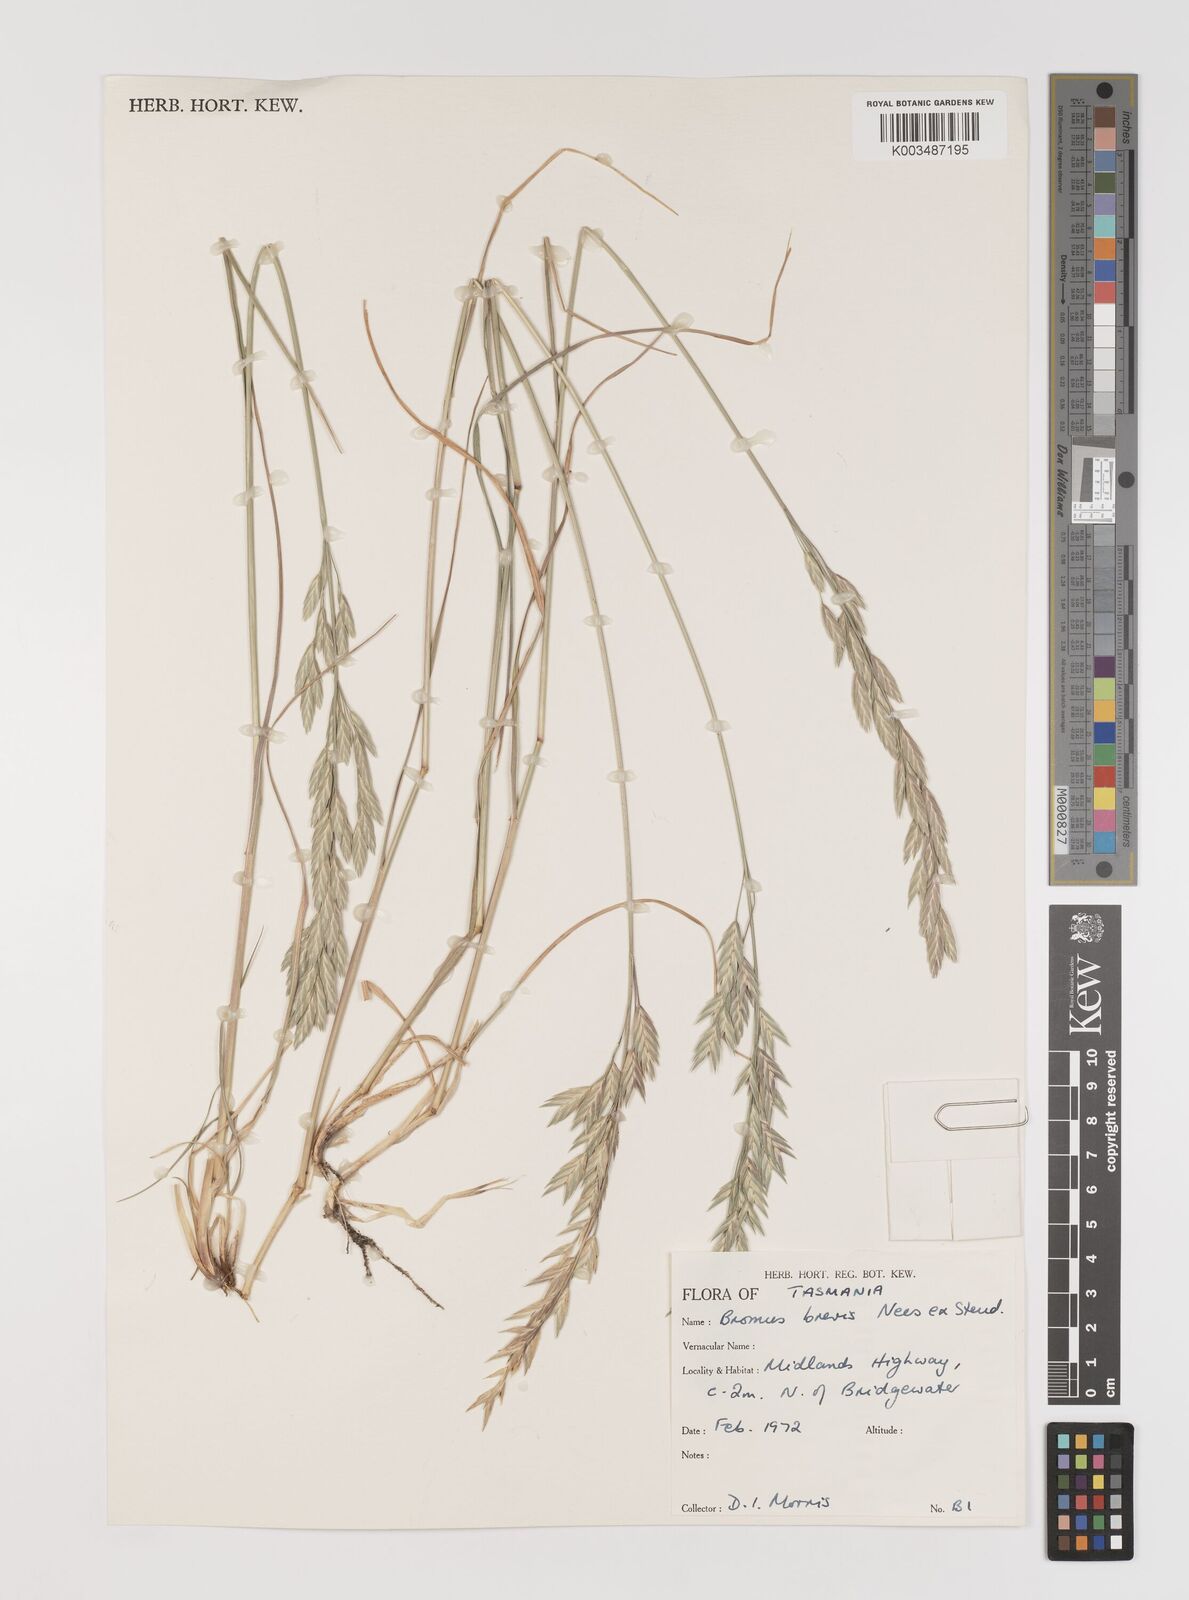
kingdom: Plantae
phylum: Tracheophyta
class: Liliopsida
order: Poales
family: Poaceae
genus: Bromus
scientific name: Bromus catharticus
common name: Rescuegrass
